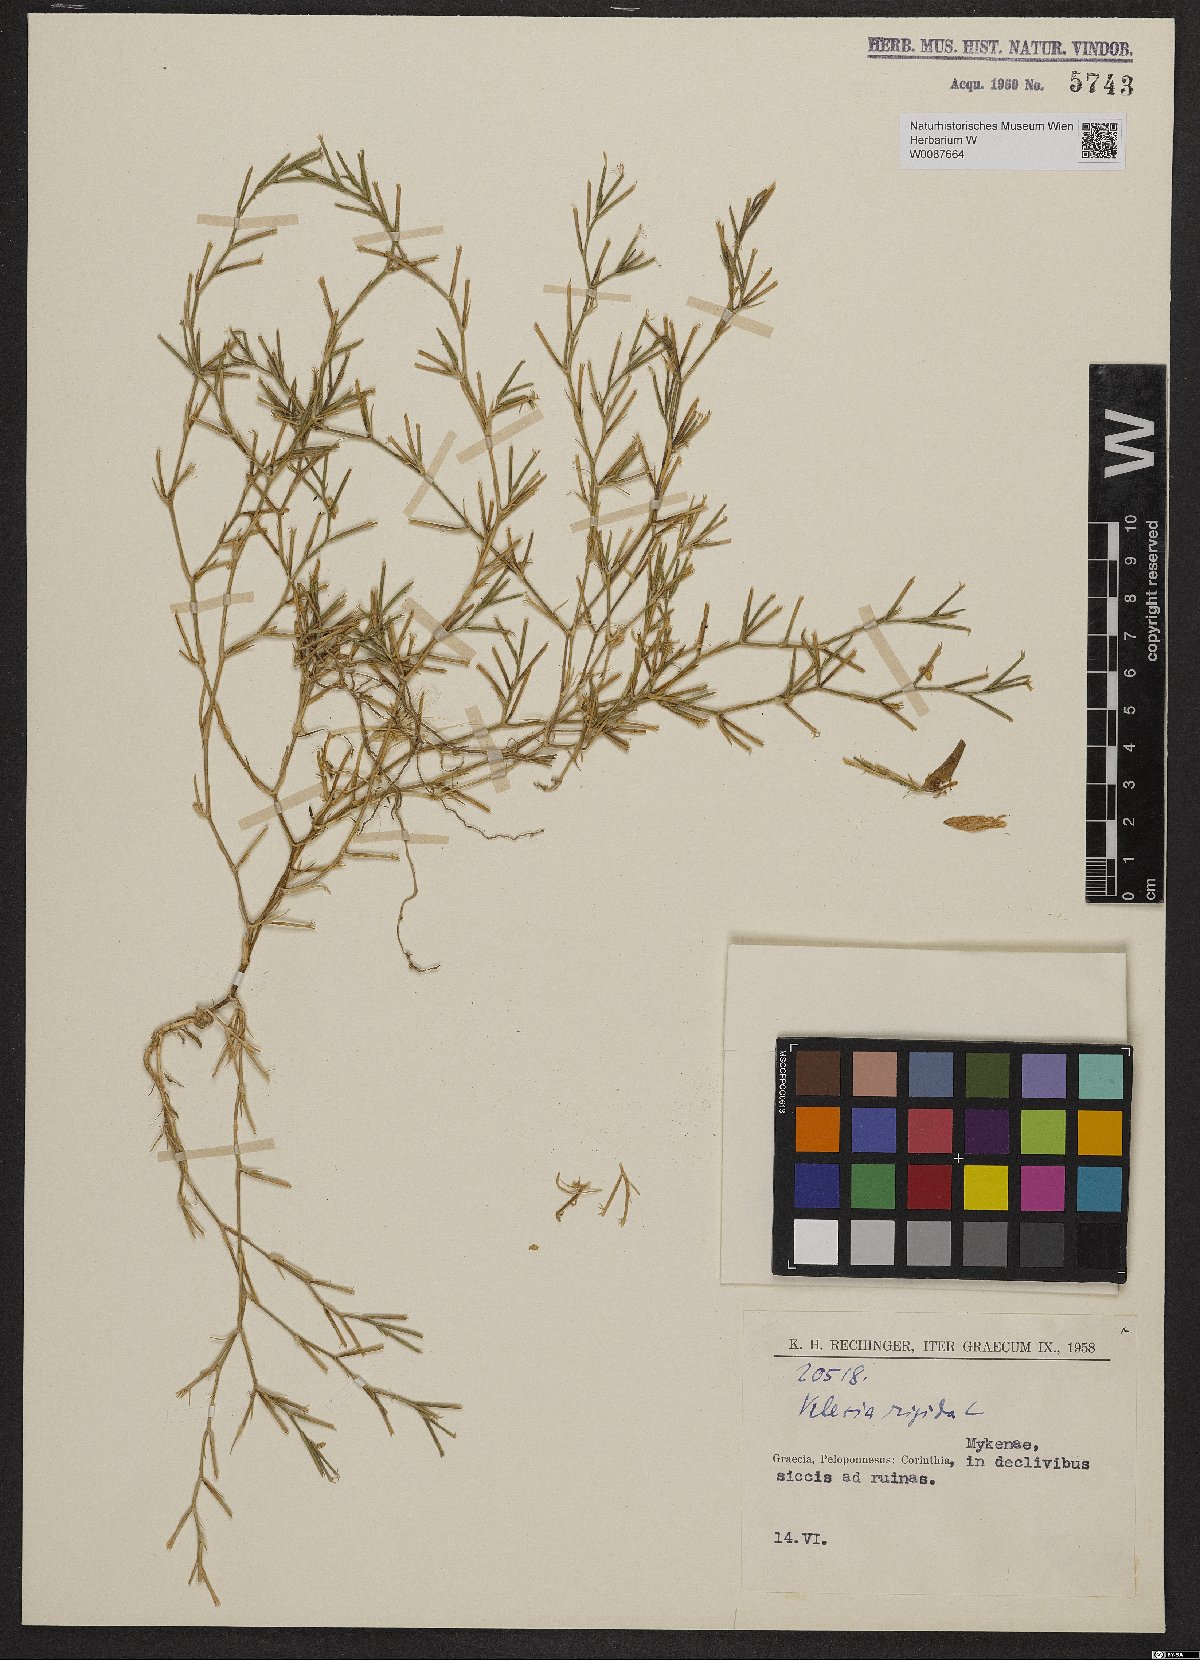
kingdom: Plantae
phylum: Tracheophyta
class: Magnoliopsida
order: Caryophyllales
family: Caryophyllaceae
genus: Dianthus
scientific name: Dianthus nudiflorus
